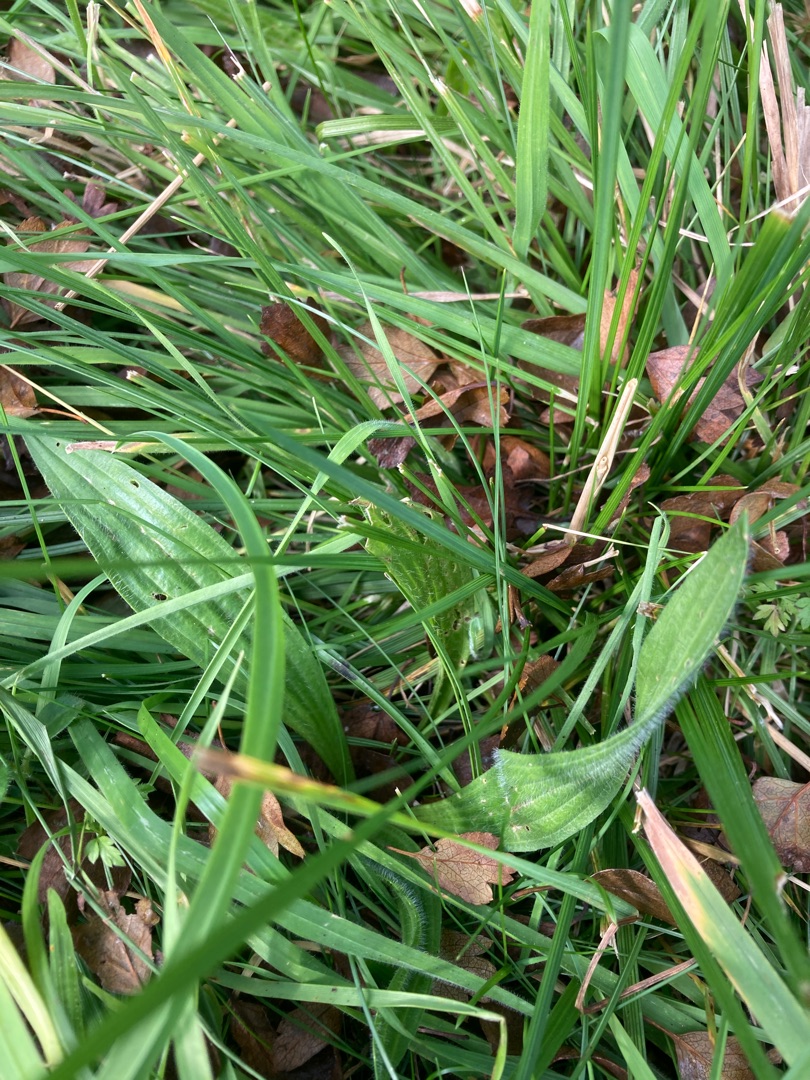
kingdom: Plantae
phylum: Tracheophyta
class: Magnoliopsida
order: Lamiales
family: Plantaginaceae
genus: Plantago
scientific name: Plantago lanceolata
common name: Lancet-vejbred
